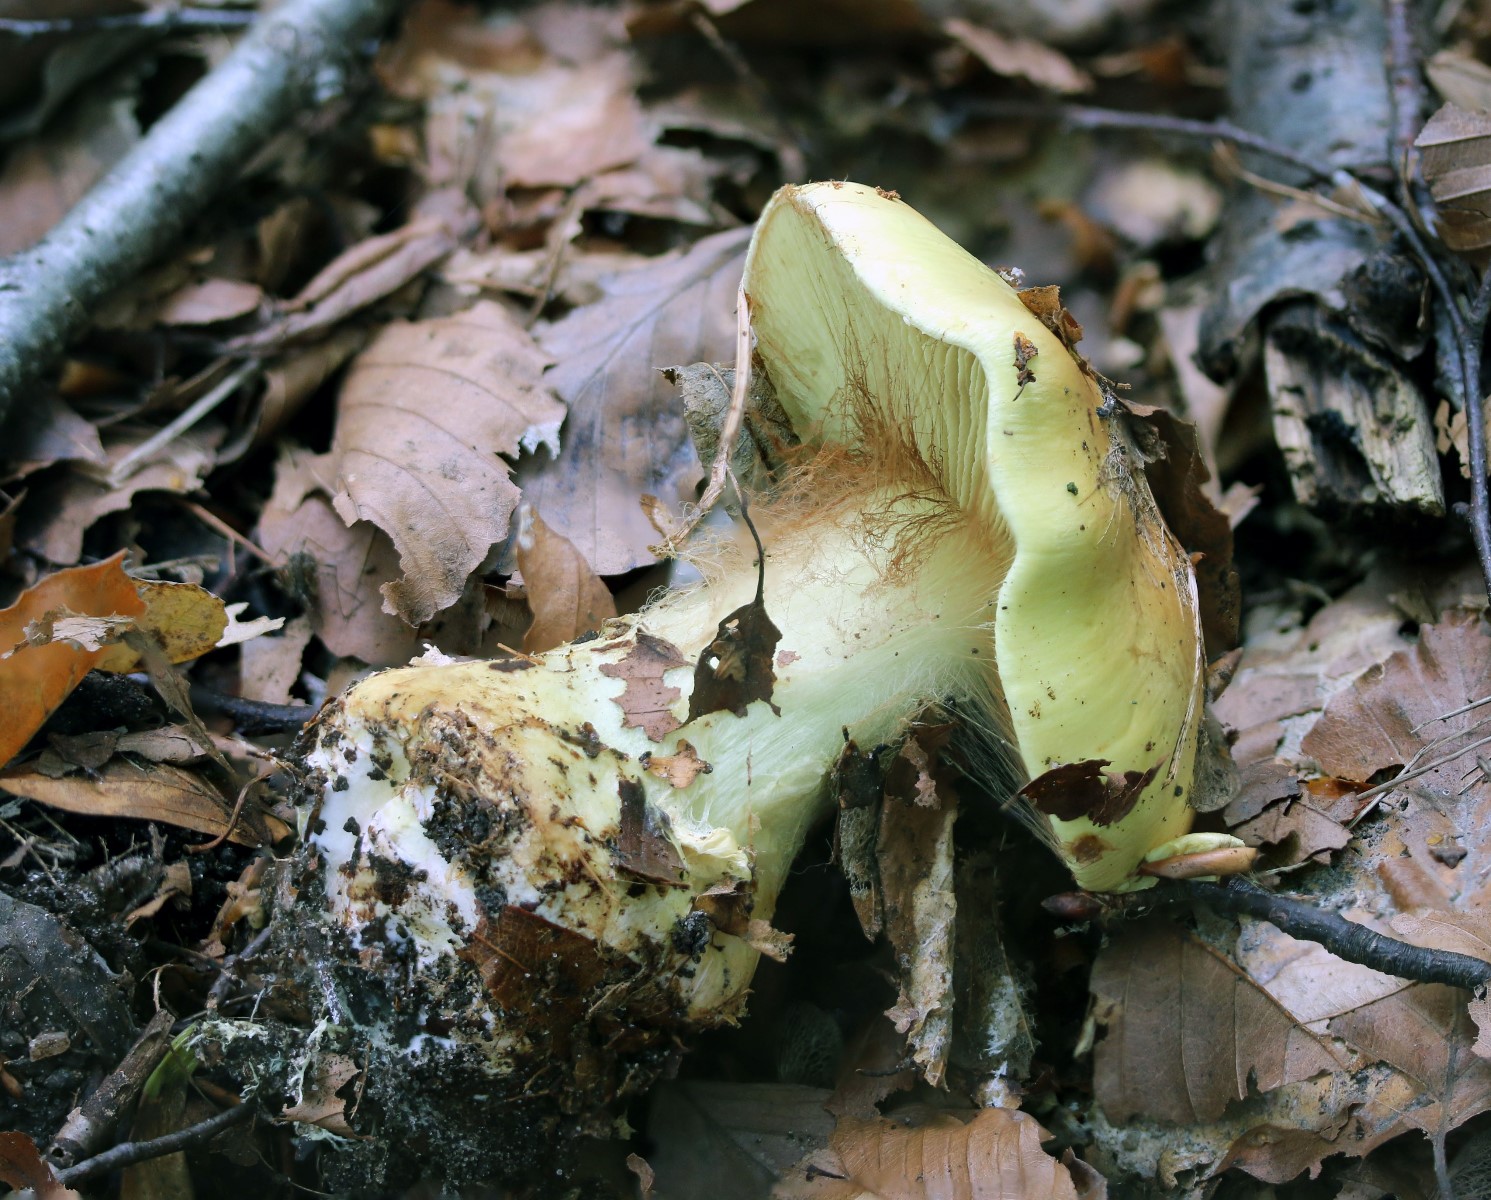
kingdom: Fungi
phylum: Basidiomycota
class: Agaricomycetes
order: Agaricales
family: Cortinariaceae
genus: Calonarius
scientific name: Calonarius elegantissimus
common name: orangegylden slørhat
